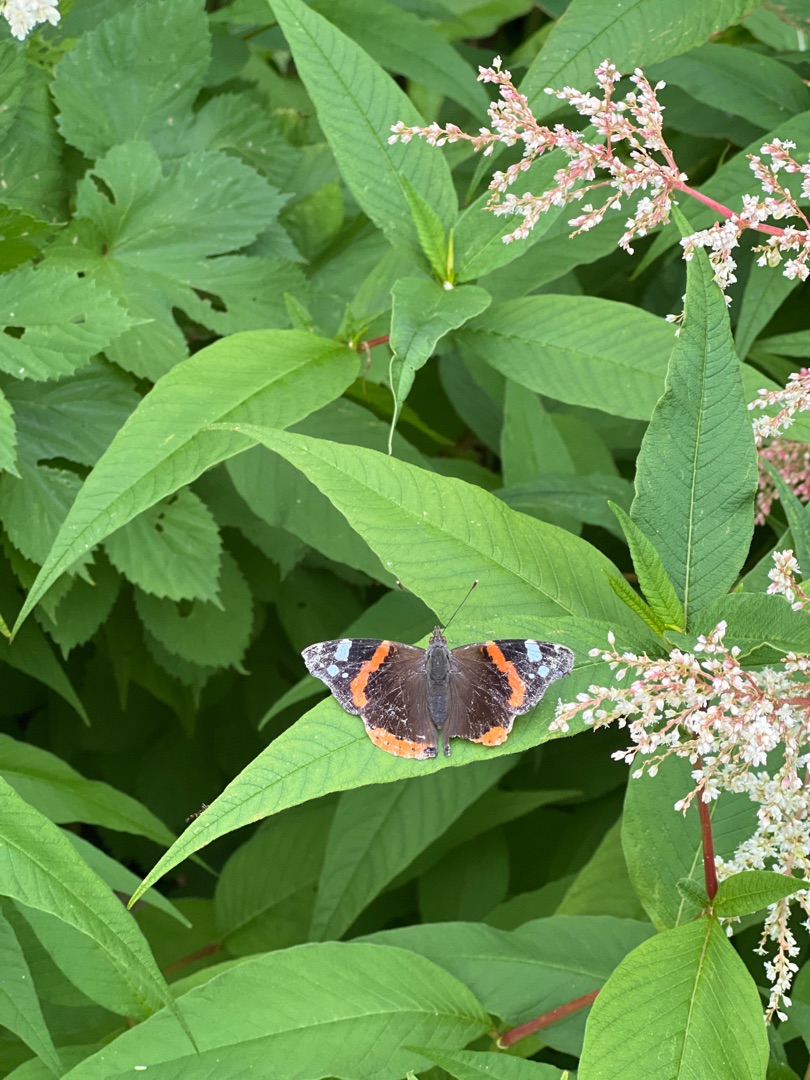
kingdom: Animalia
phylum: Arthropoda
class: Insecta
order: Lepidoptera
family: Nymphalidae
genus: Vanessa
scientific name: Vanessa atalanta
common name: Admiral
